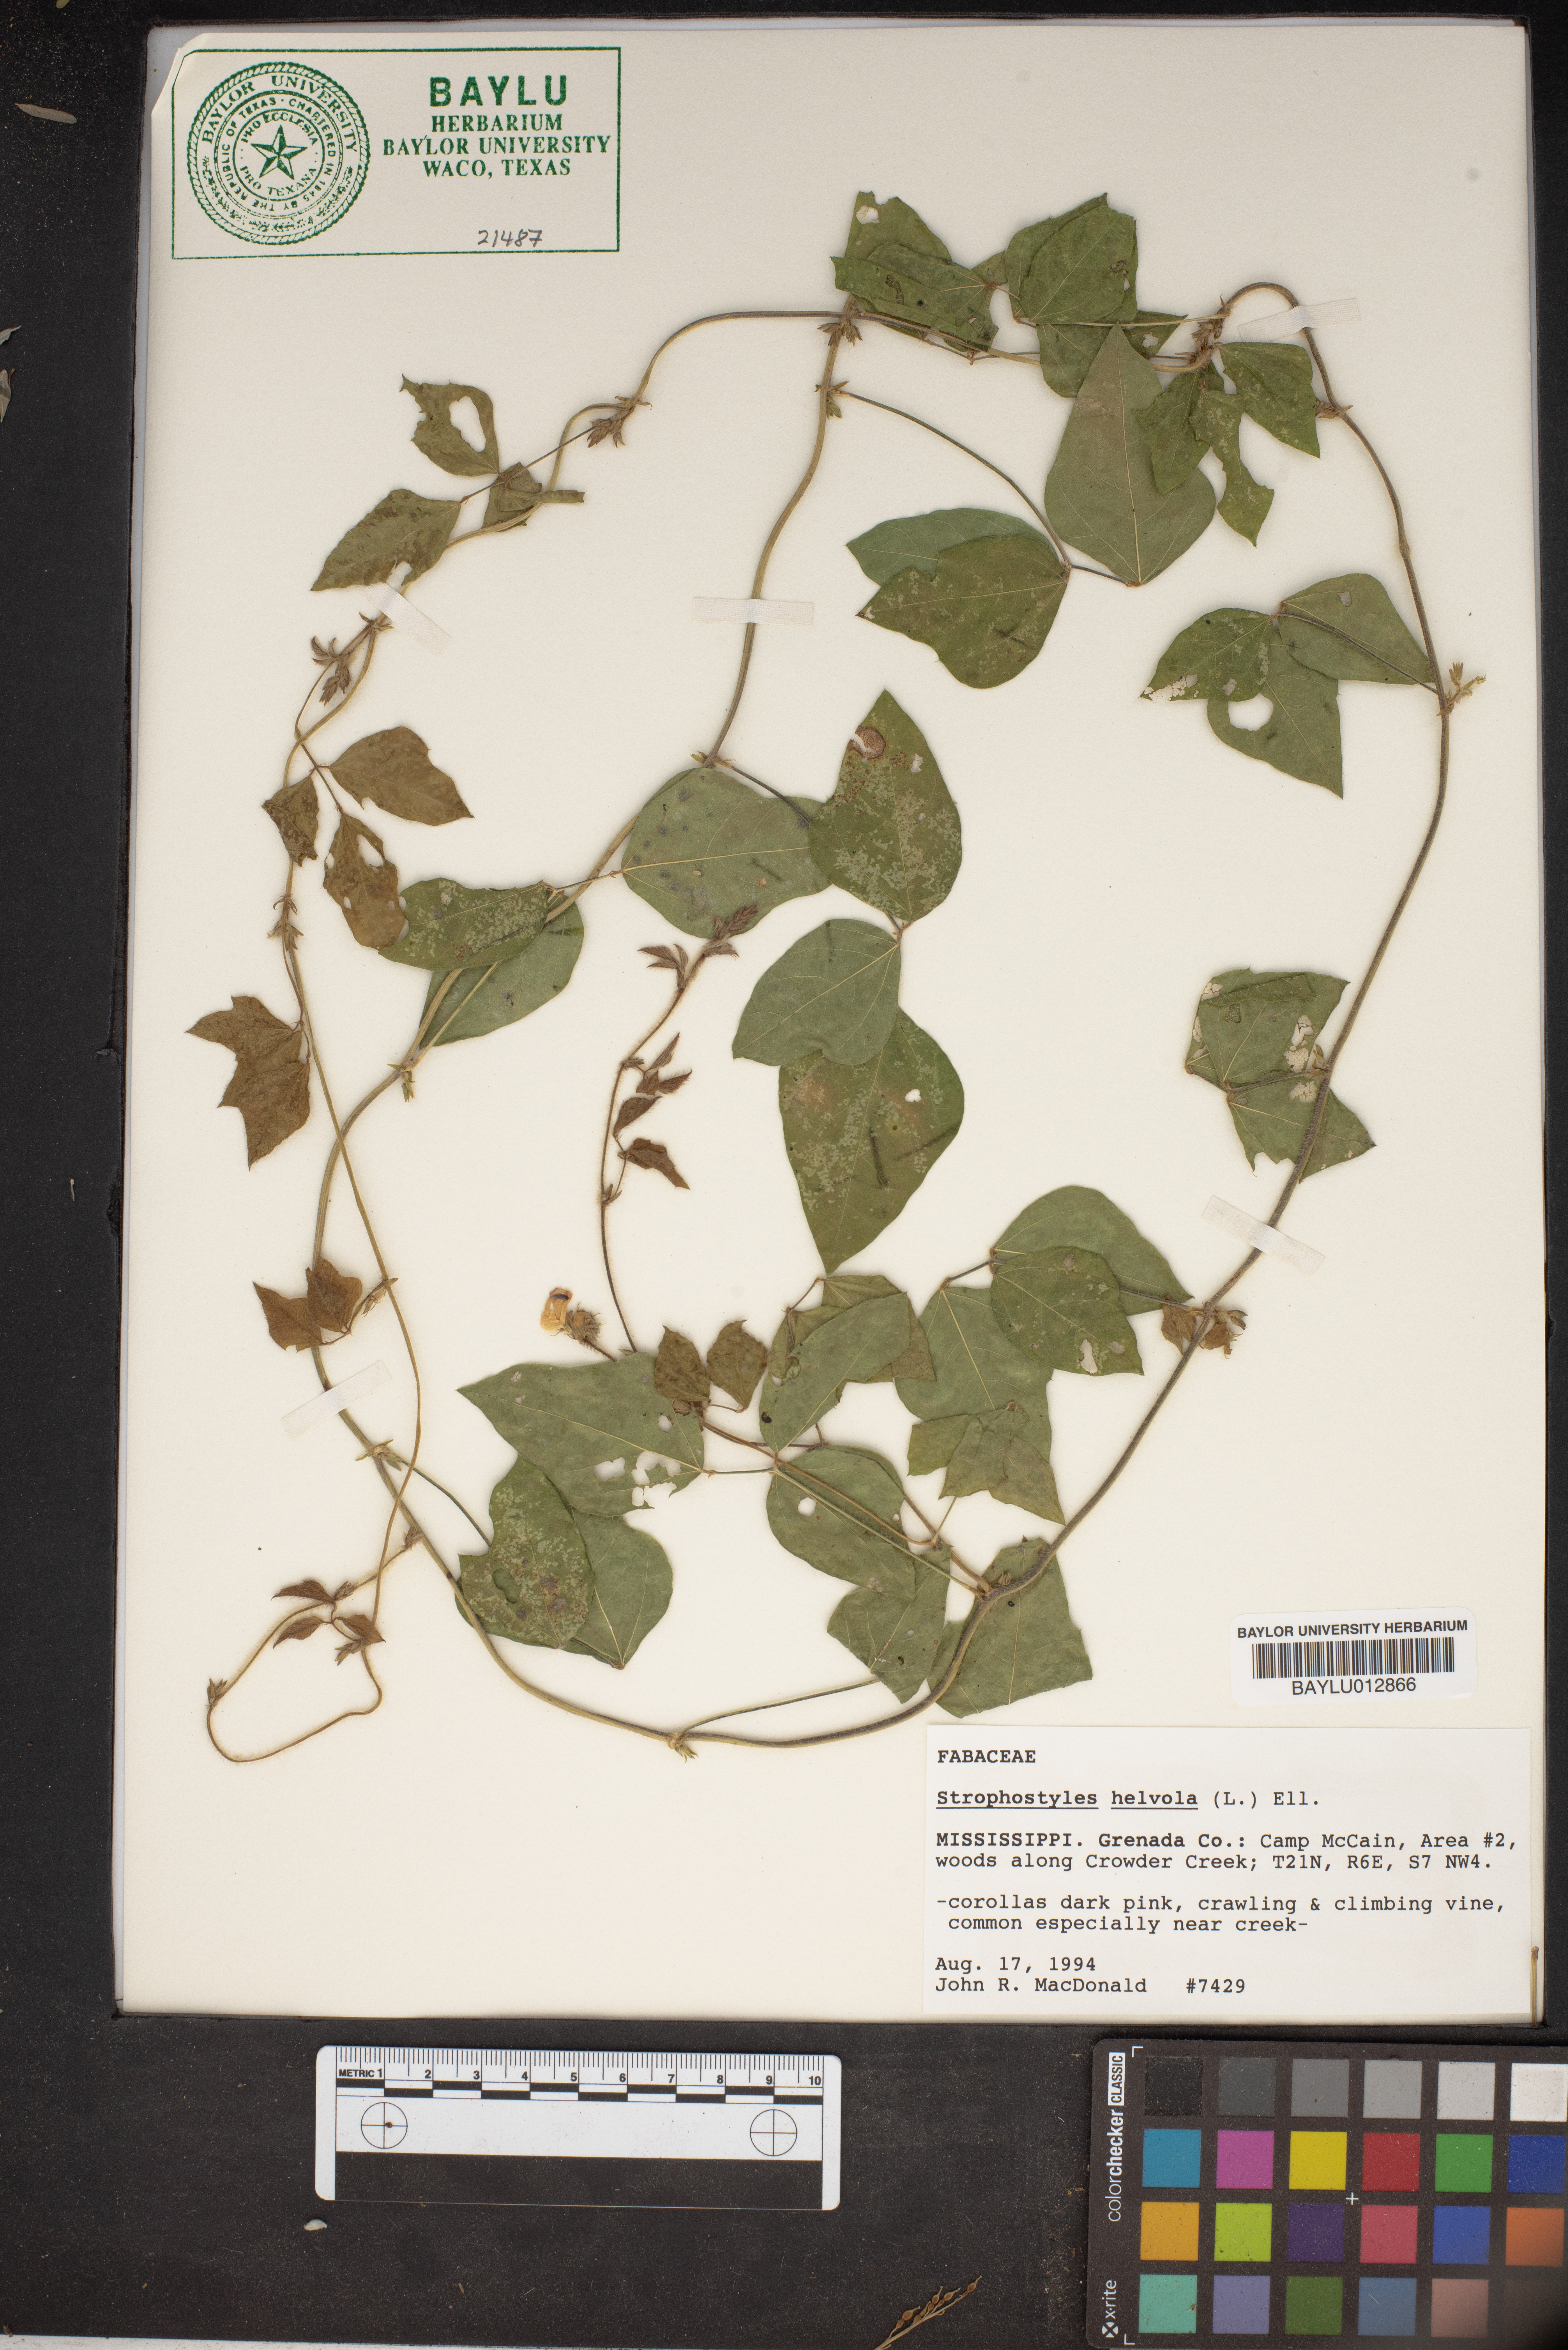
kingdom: Plantae
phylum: Tracheophyta
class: Magnoliopsida
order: Fabales
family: Fabaceae
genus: Strophostyles
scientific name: Strophostyles helvola
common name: Trailing wild bean
